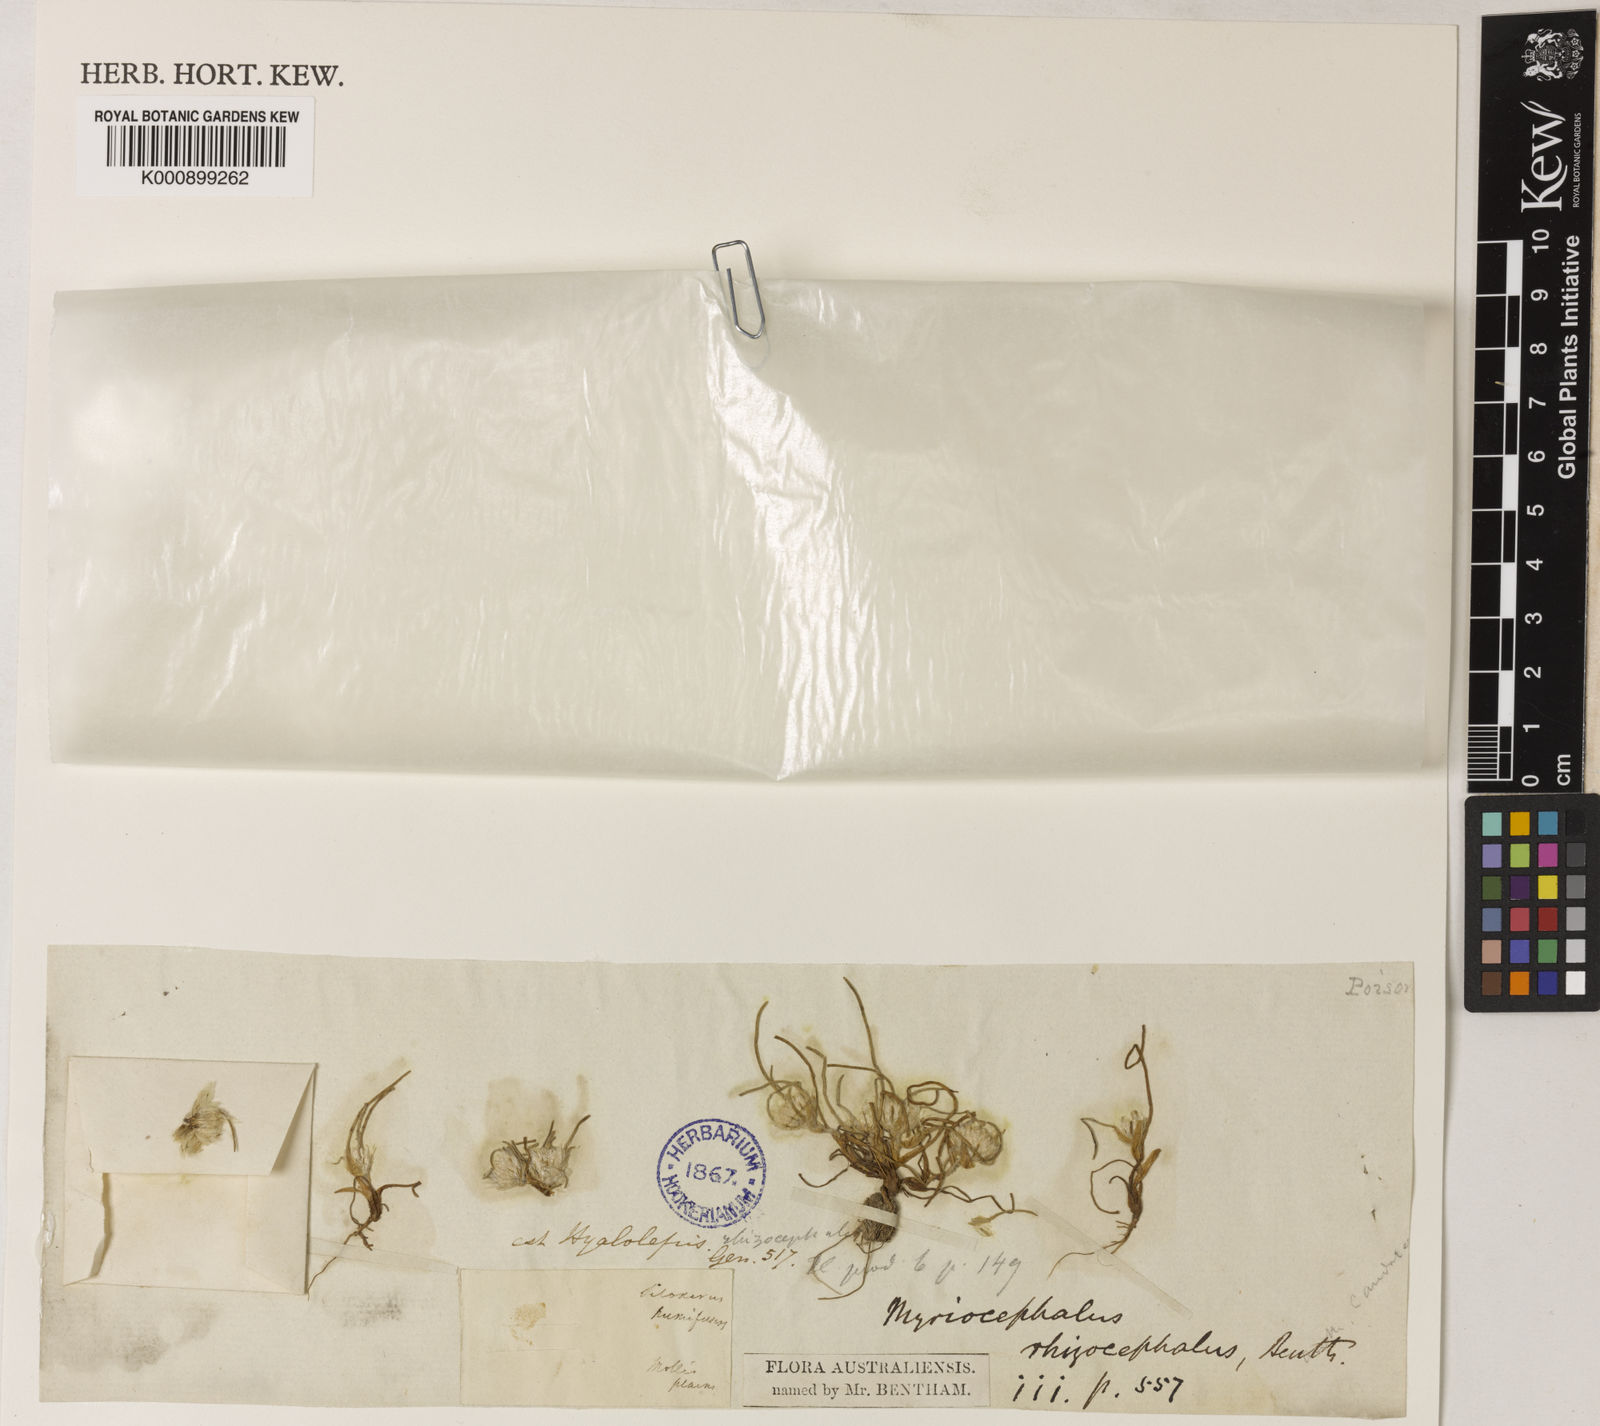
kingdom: Plantae
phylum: Tracheophyta
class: Magnoliopsida
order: Asterales
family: Asteraceae
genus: Myriocephalus
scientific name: Myriocephalus rhizocephalus
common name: Tufted woolly-heads
